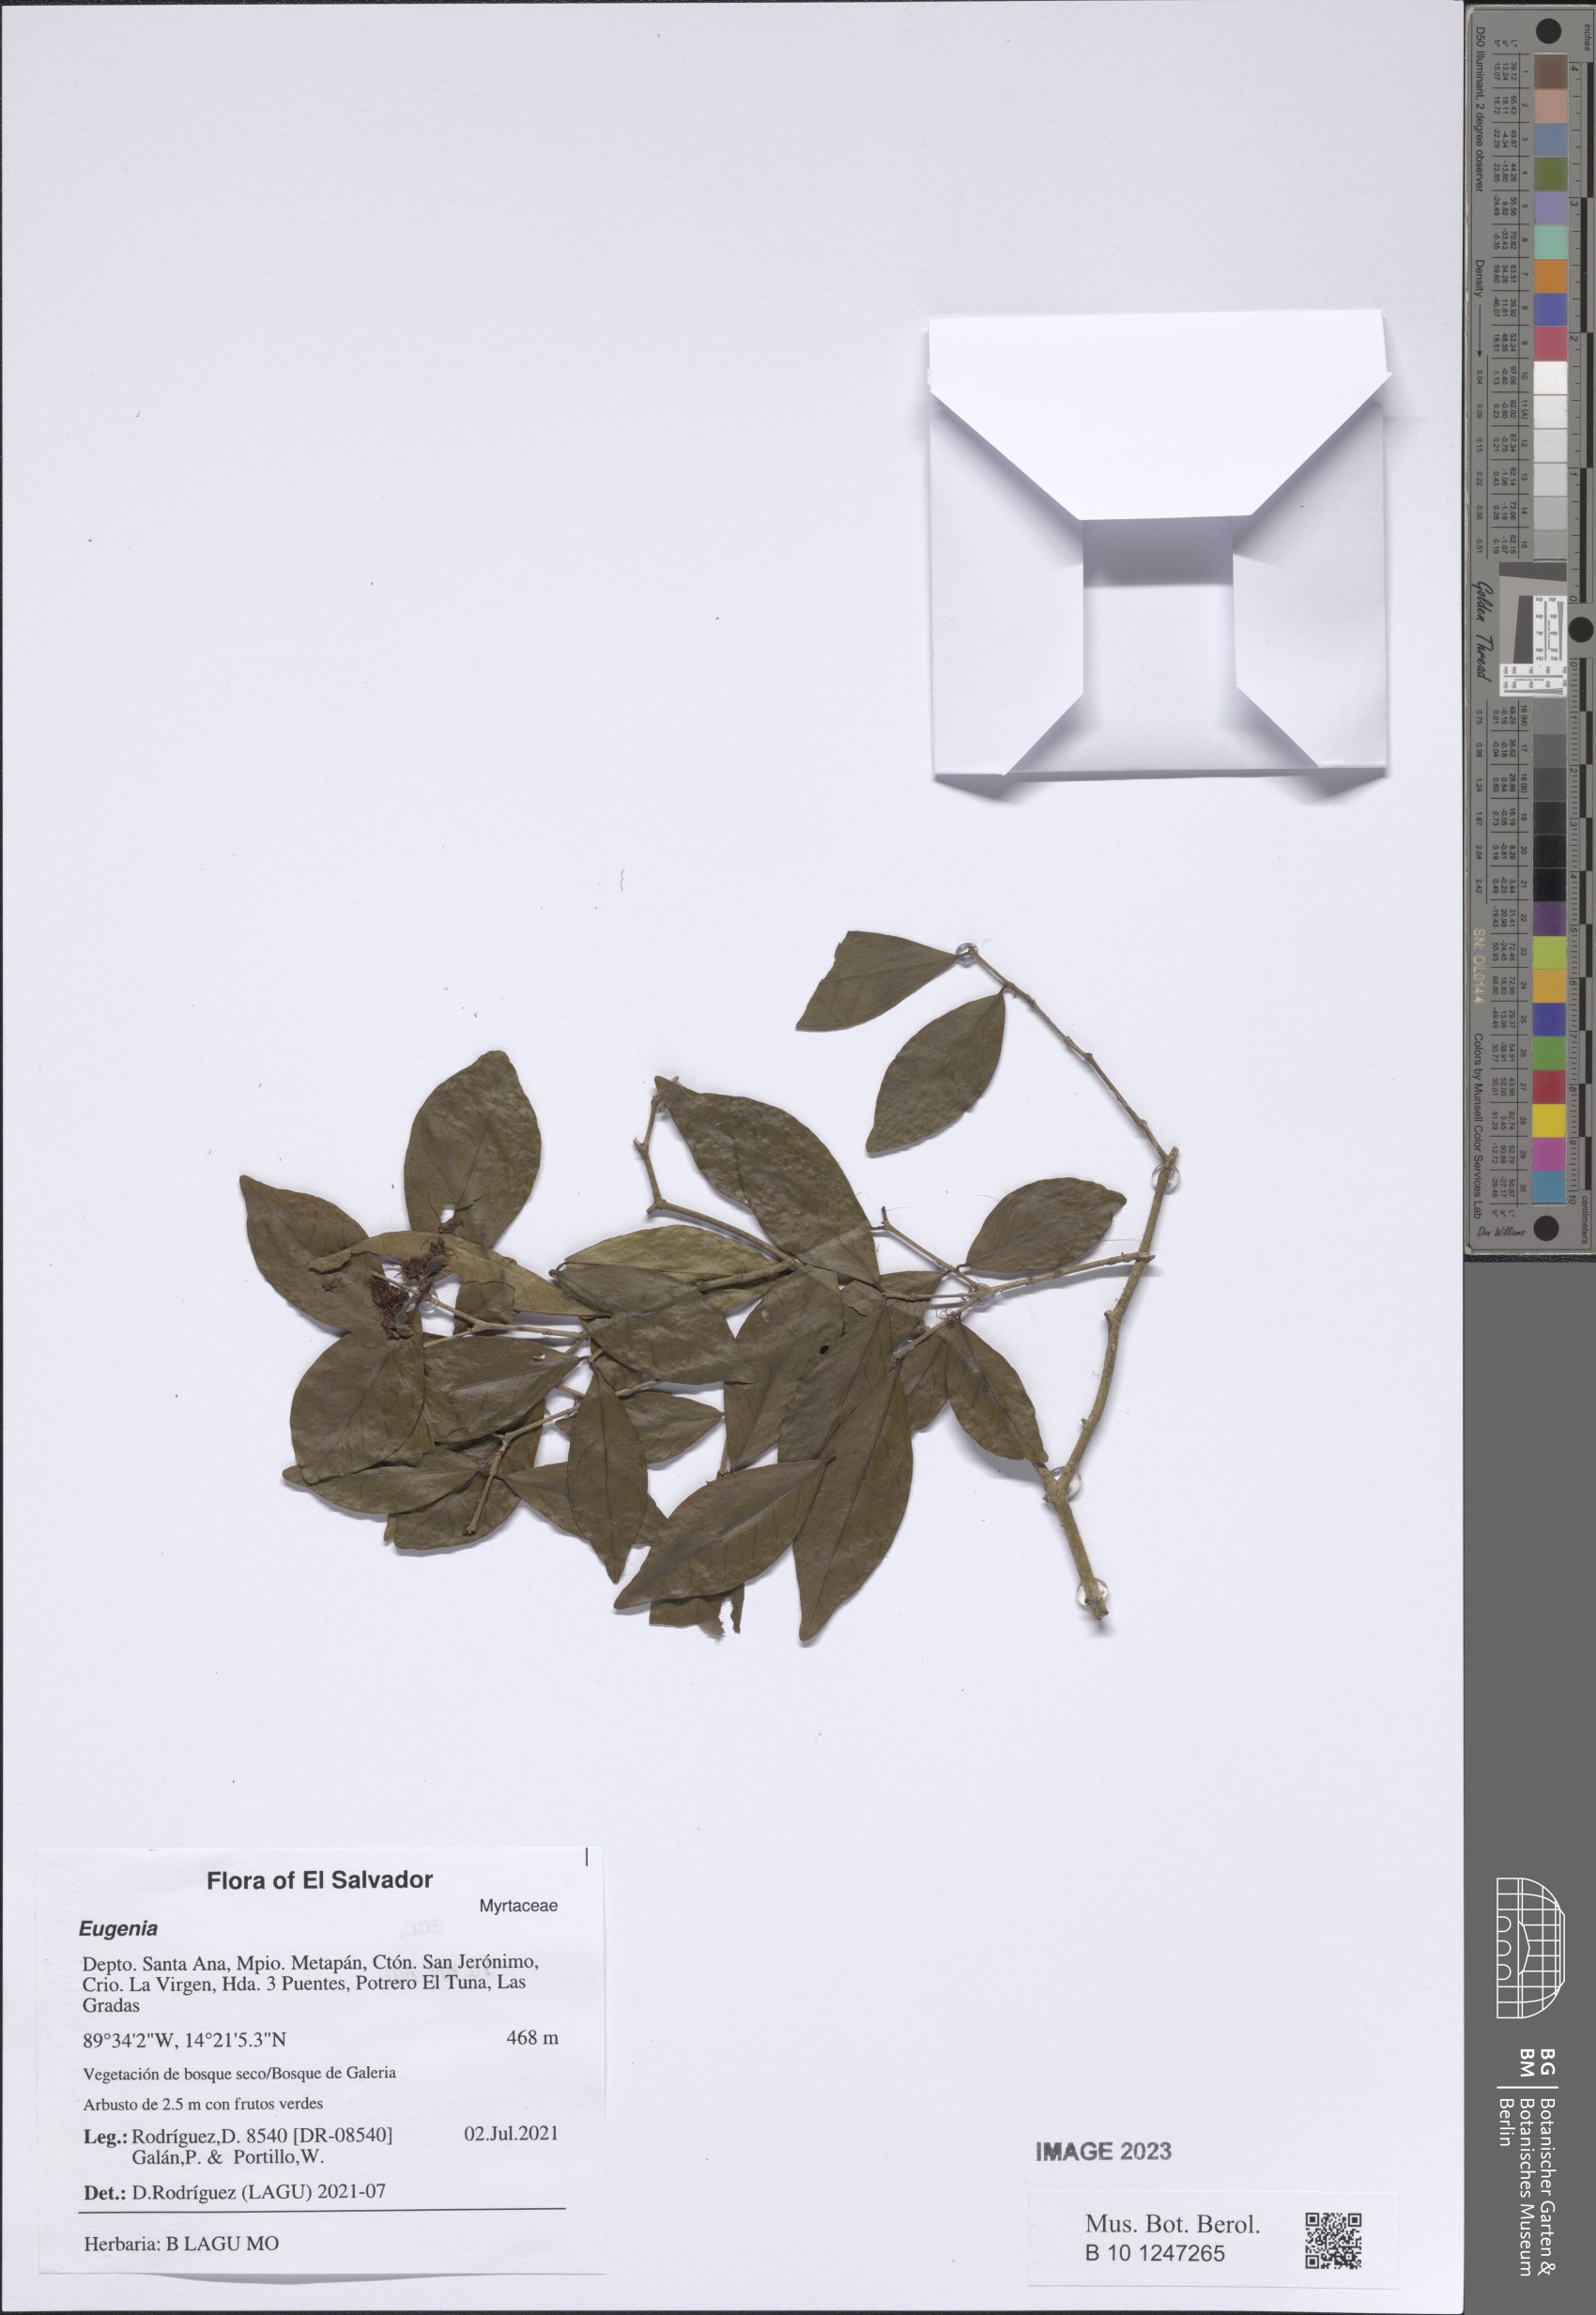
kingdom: Plantae
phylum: Tracheophyta
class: Magnoliopsida
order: Myrtales
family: Myrtaceae
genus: Eugenia
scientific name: Eugenia
